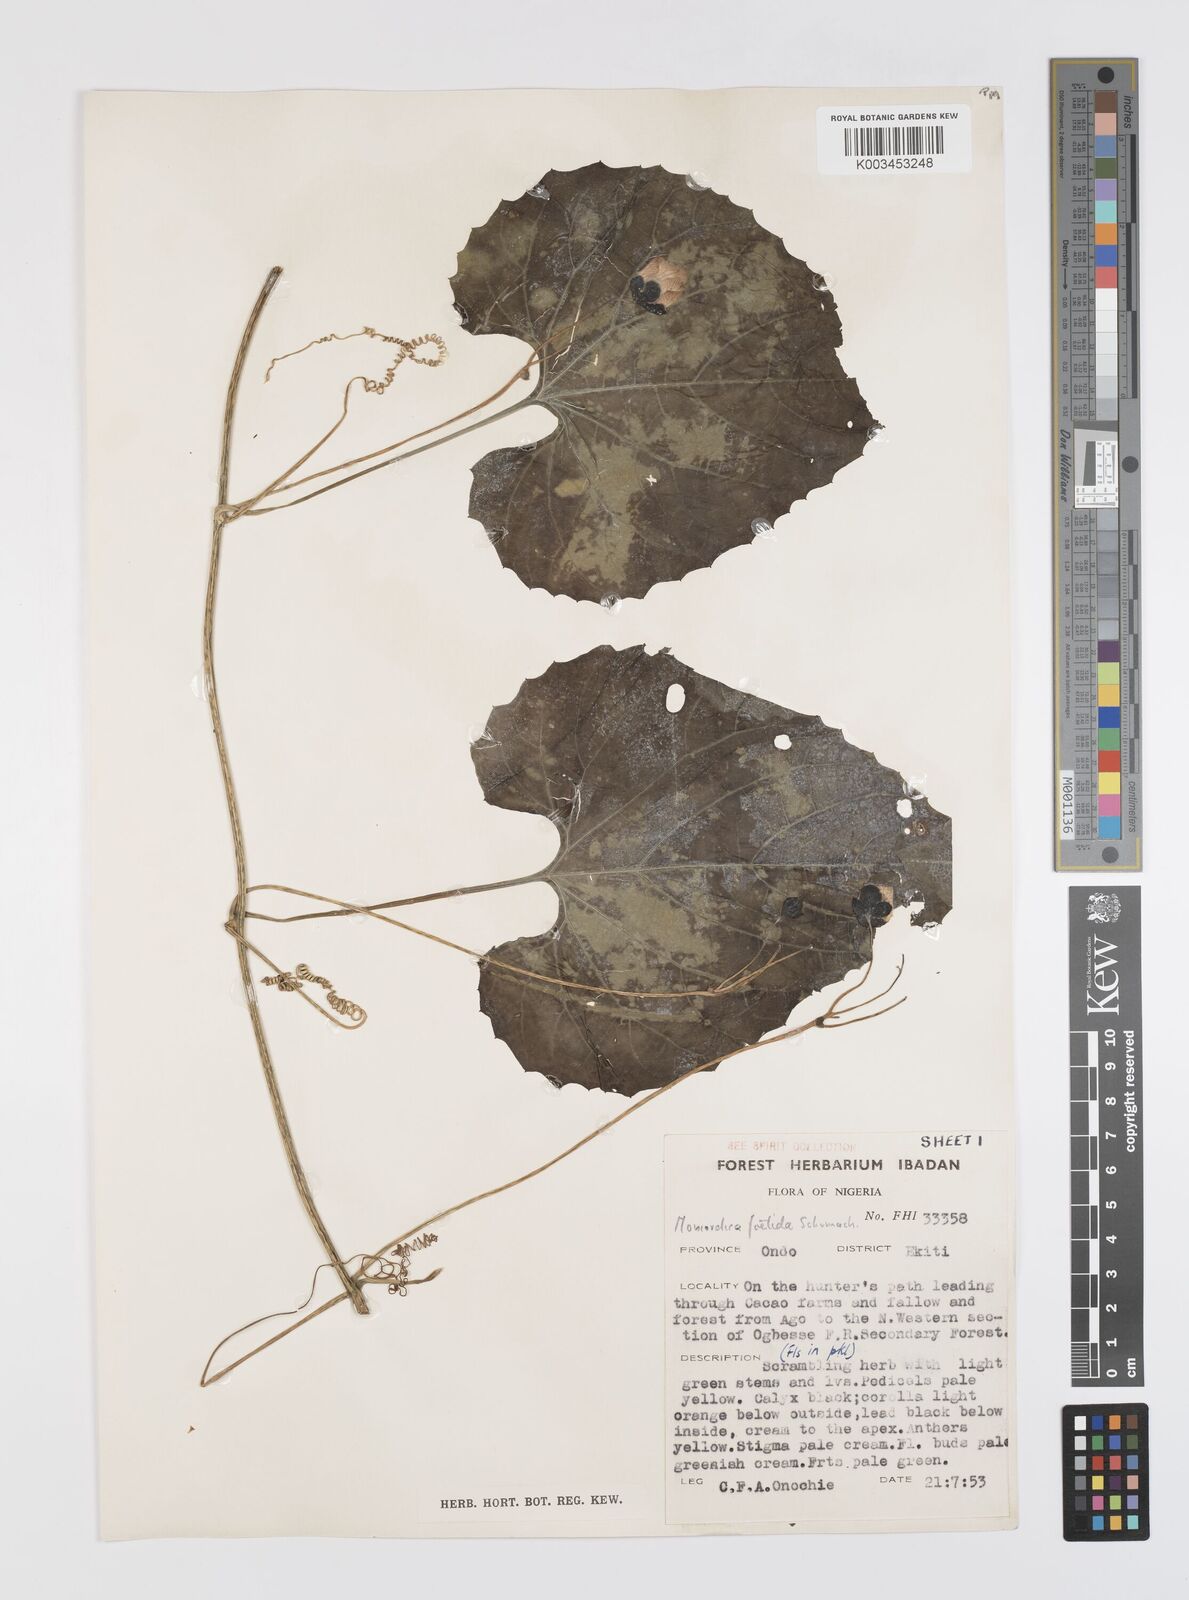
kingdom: Plantae
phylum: Tracheophyta
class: Magnoliopsida
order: Cucurbitales
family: Cucurbitaceae
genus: Momordica
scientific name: Momordica foetida
